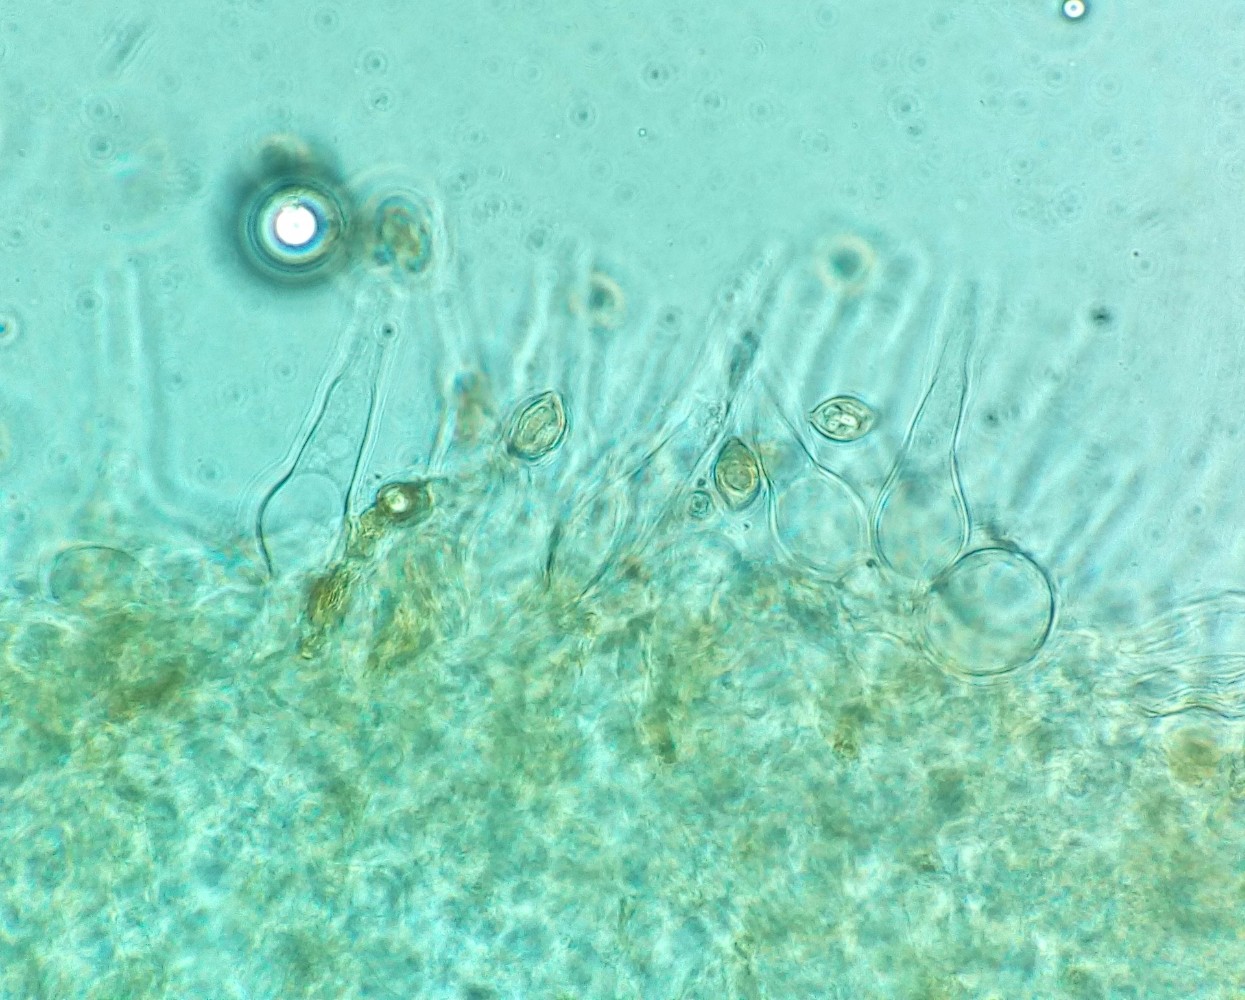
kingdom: Fungi
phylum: Basidiomycota
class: Agaricomycetes
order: Agaricales
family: Hymenogastraceae
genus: Galerina
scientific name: Galerina atkinsoniana
